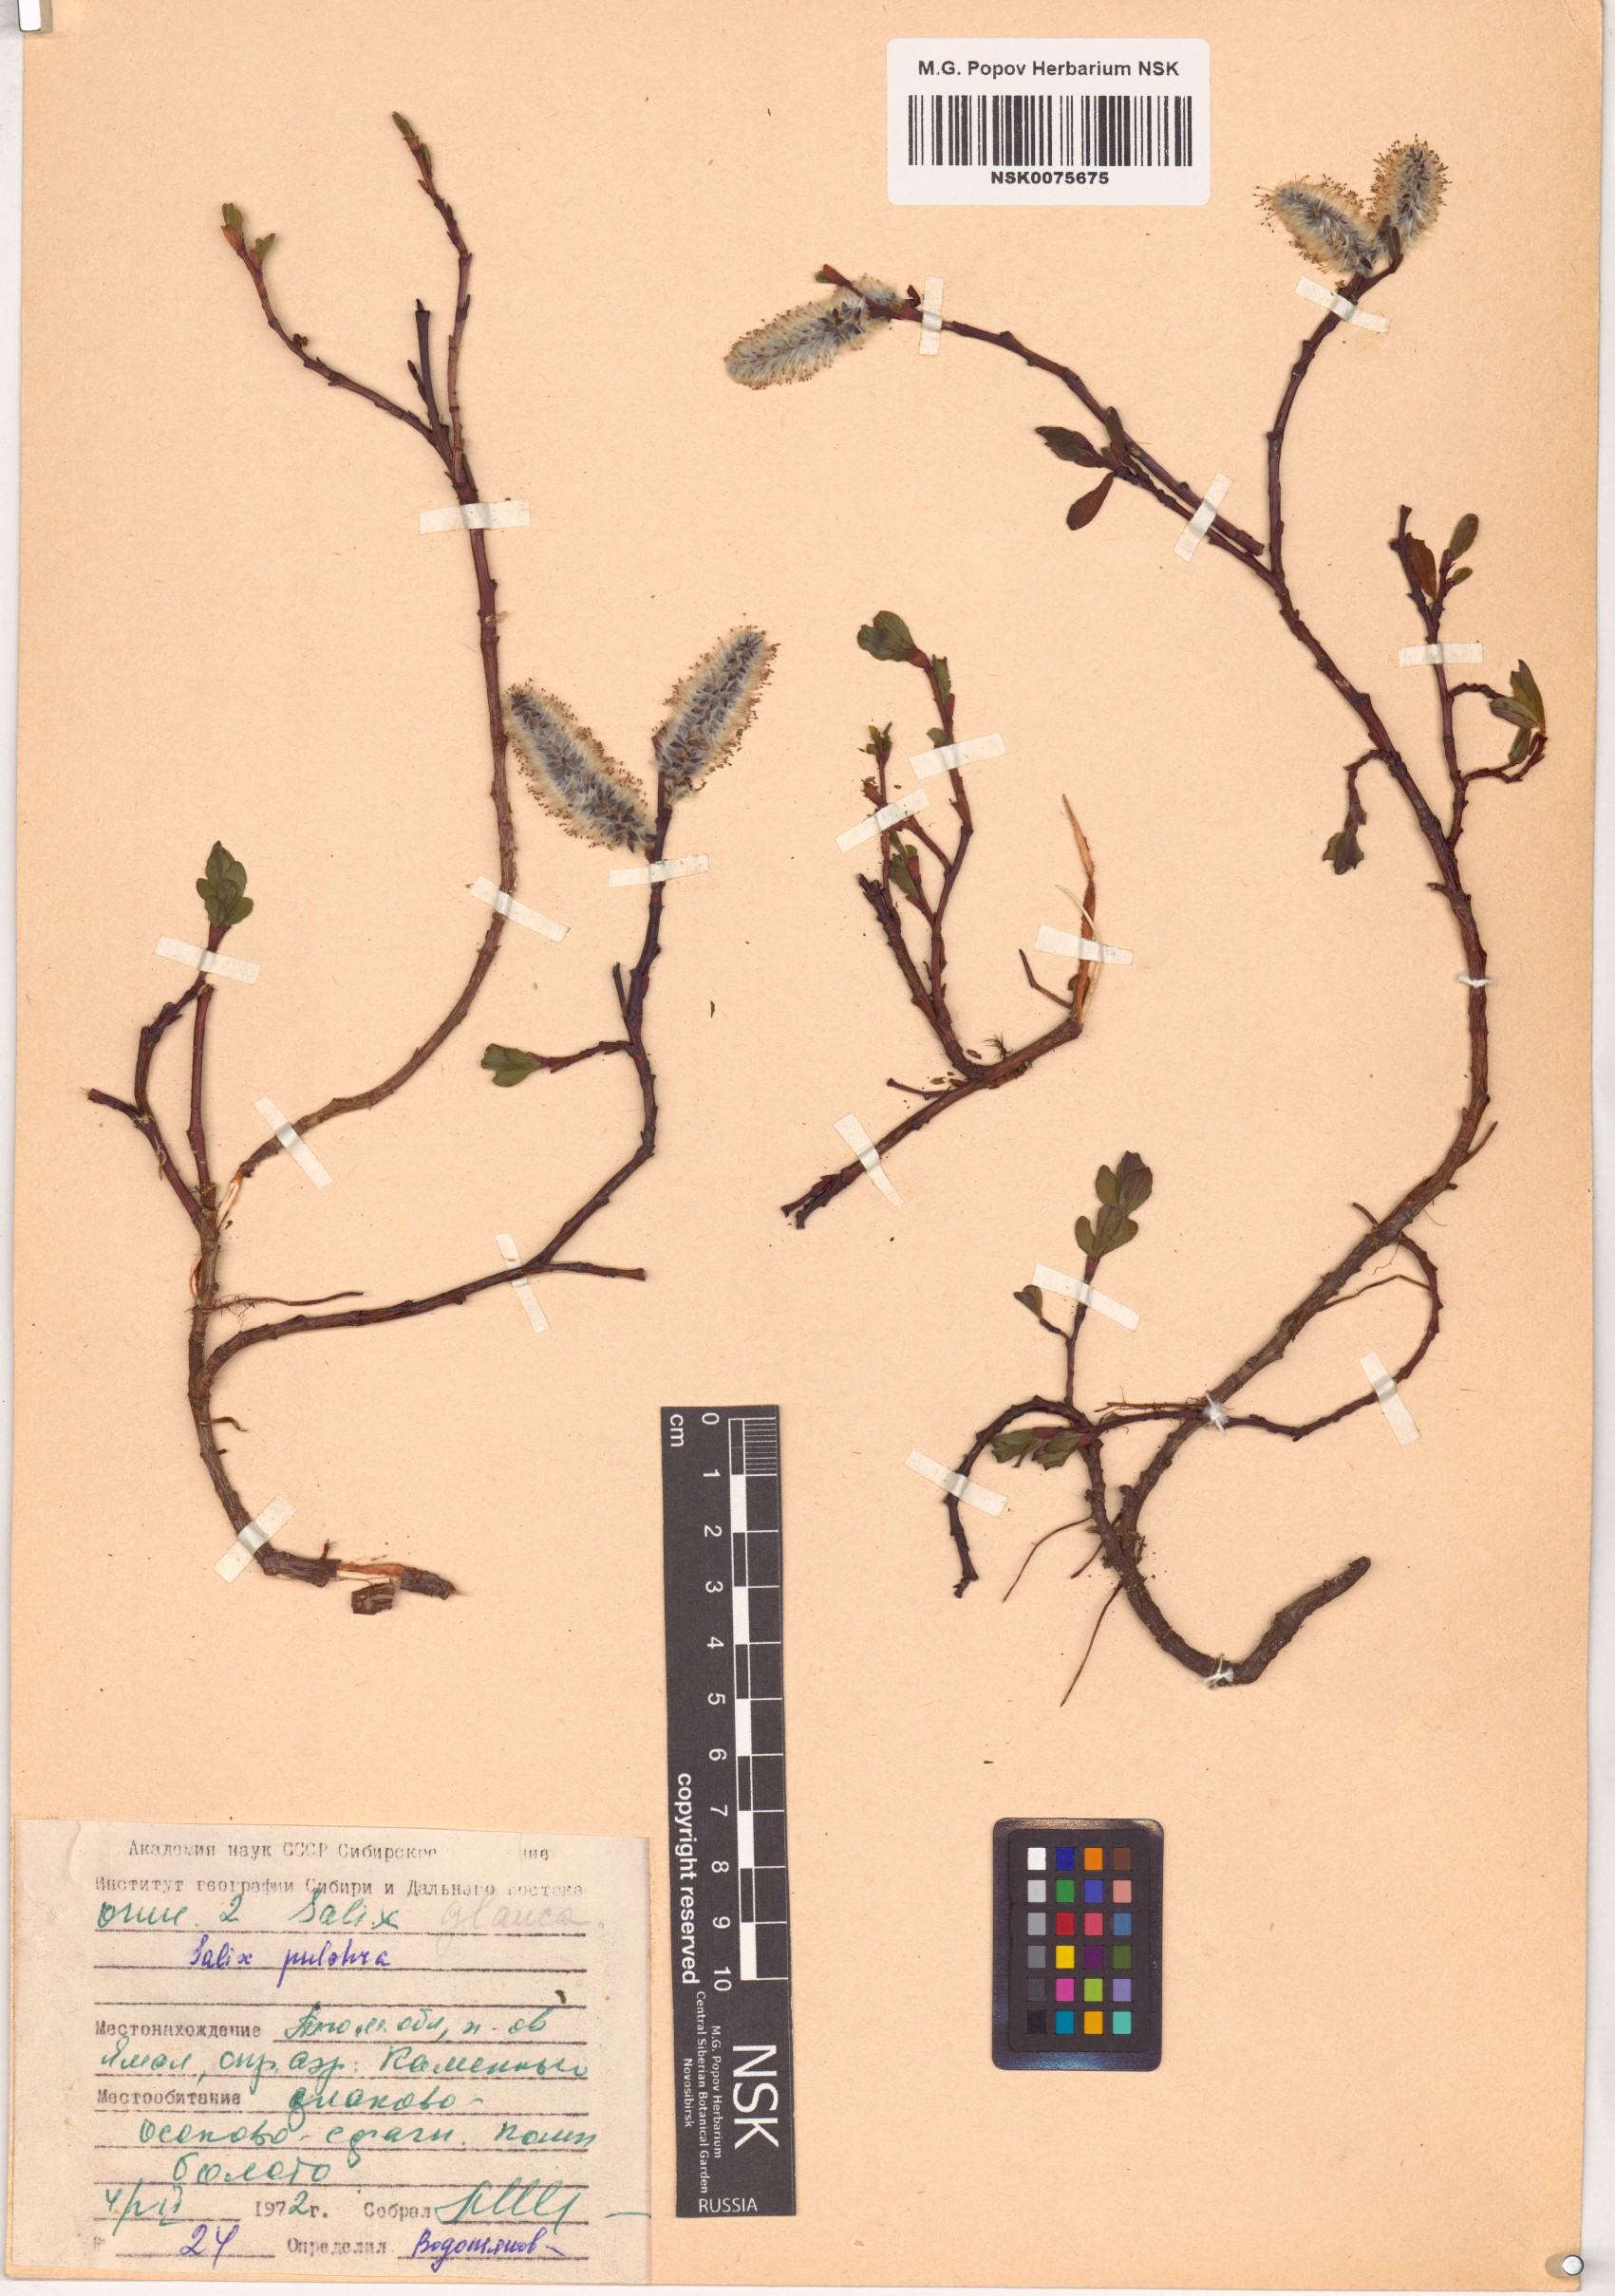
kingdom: Plantae
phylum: Tracheophyta
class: Magnoliopsida
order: Malpighiales
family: Salicaceae
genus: Salix
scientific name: Salix pulchra
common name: Diamond-leaved willow
